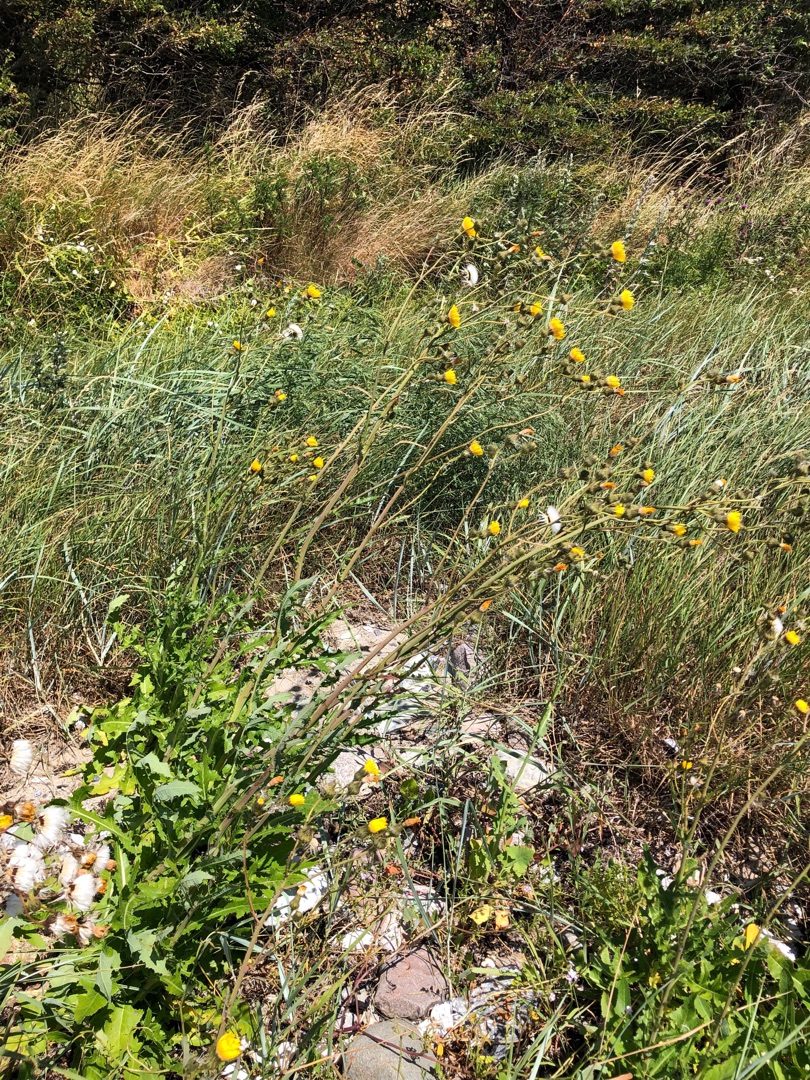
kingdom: Plantae
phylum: Tracheophyta
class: Magnoliopsida
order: Asterales
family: Asteraceae
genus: Sonchus
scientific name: Sonchus arvensis
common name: Ager-svinemælk
